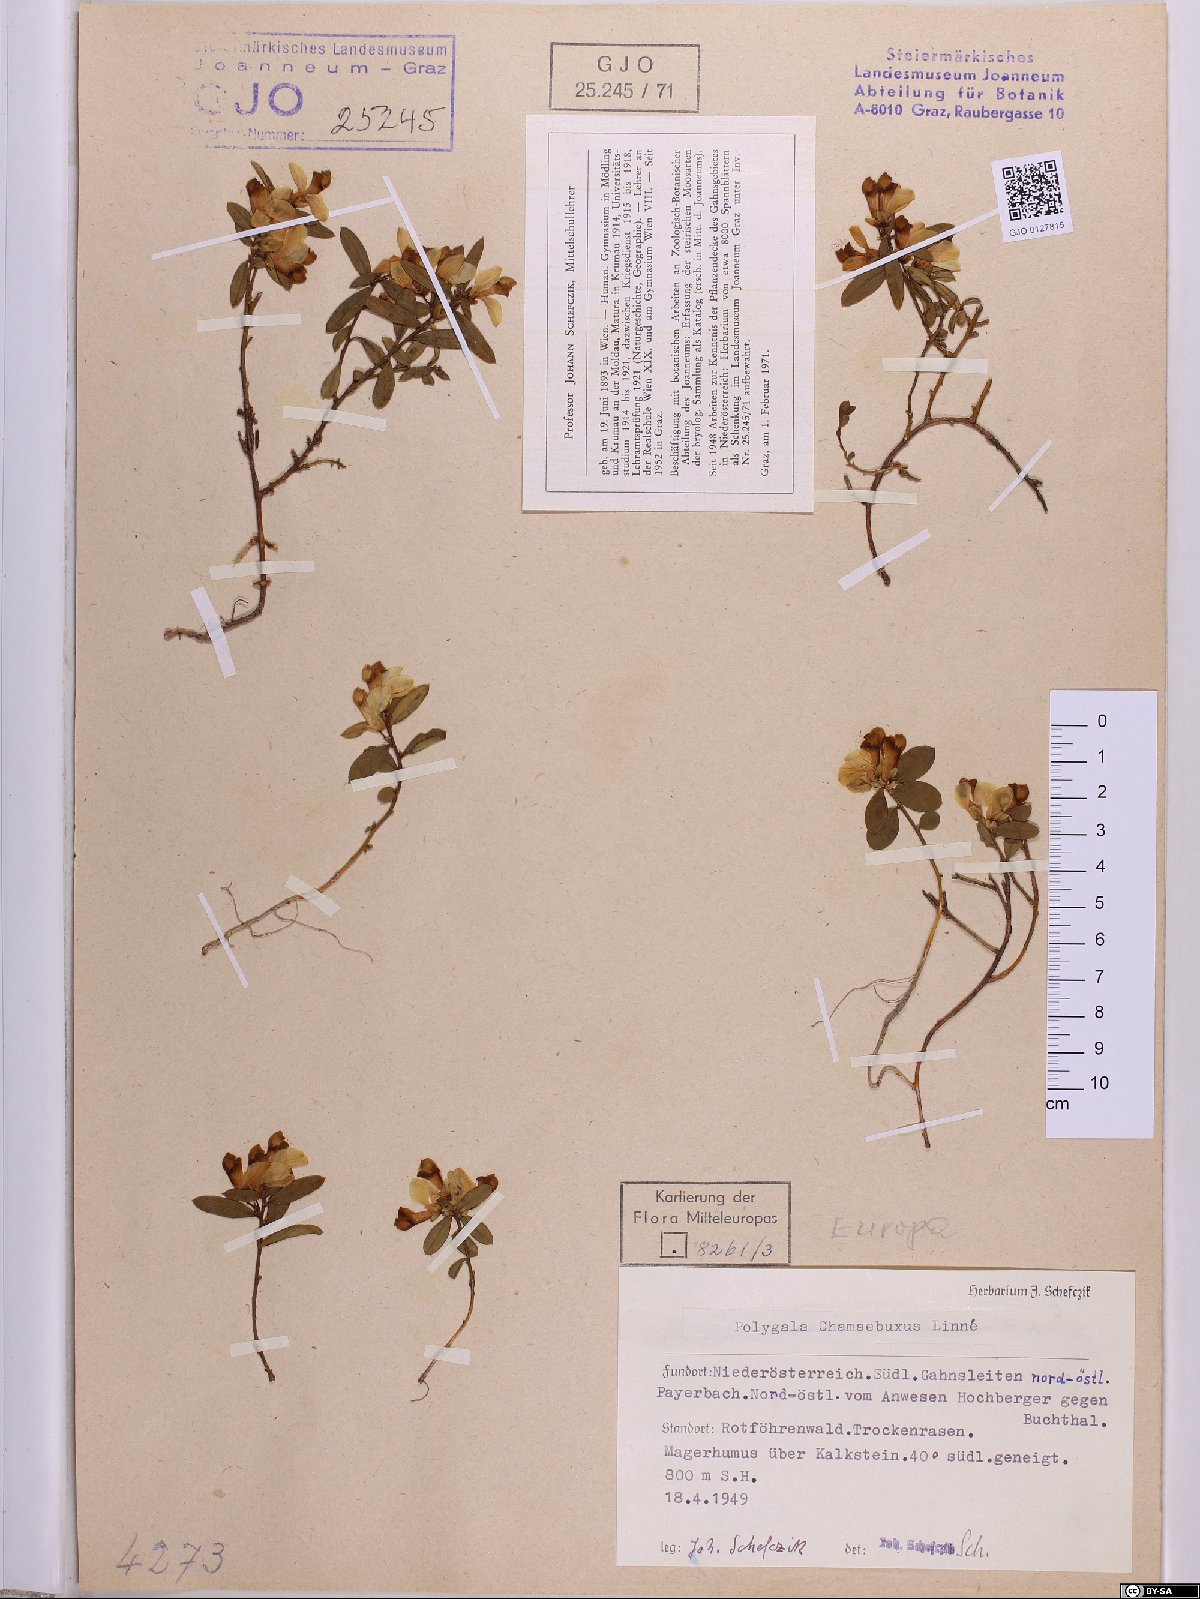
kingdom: Plantae
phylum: Tracheophyta
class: Magnoliopsida
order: Fabales
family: Polygalaceae
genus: Polygaloides
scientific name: Polygaloides chamaebuxus
